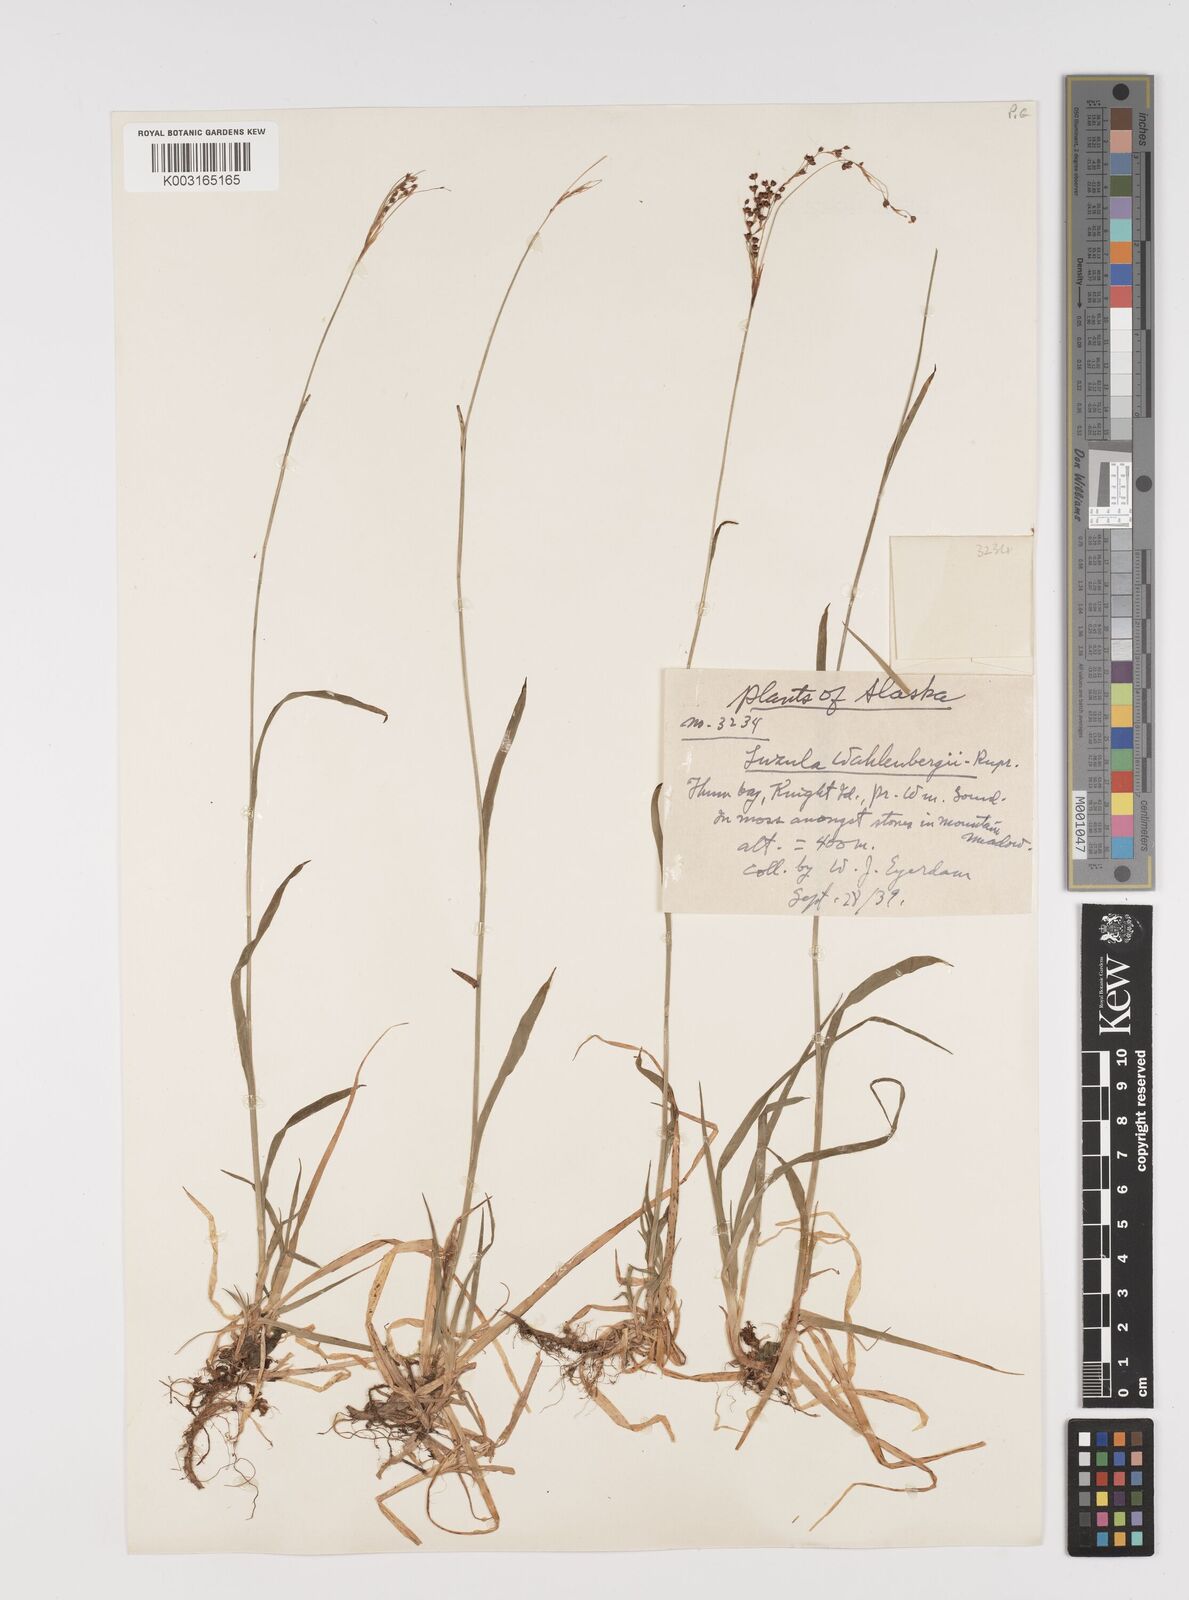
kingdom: Plantae
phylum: Tracheophyta
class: Liliopsida
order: Poales
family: Juncaceae
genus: Luzula
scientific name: Luzula wahlenbergii
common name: Wahlenberg's wood-rush
